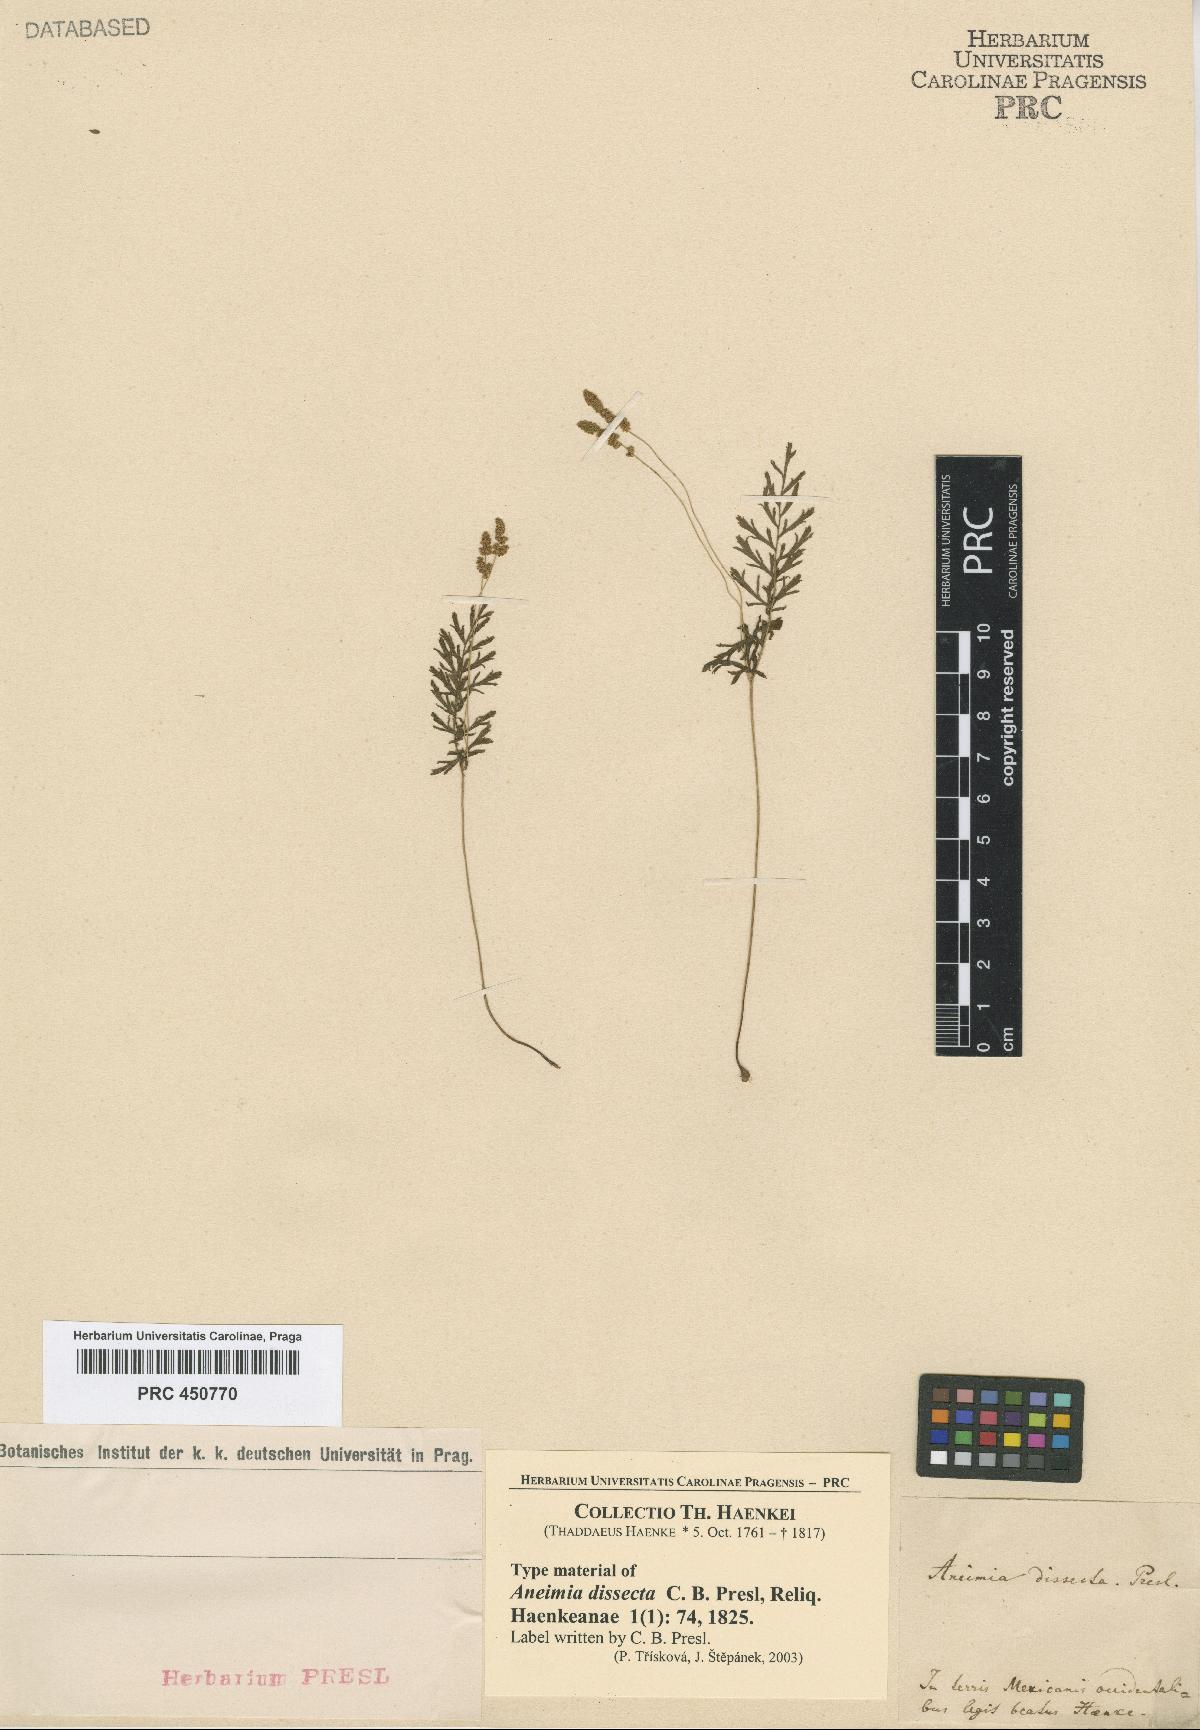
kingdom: Plantae
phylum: Tracheophyta
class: Polypodiopsida
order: Schizaeales
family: Anemiaceae
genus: Anemia
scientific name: Anemia
